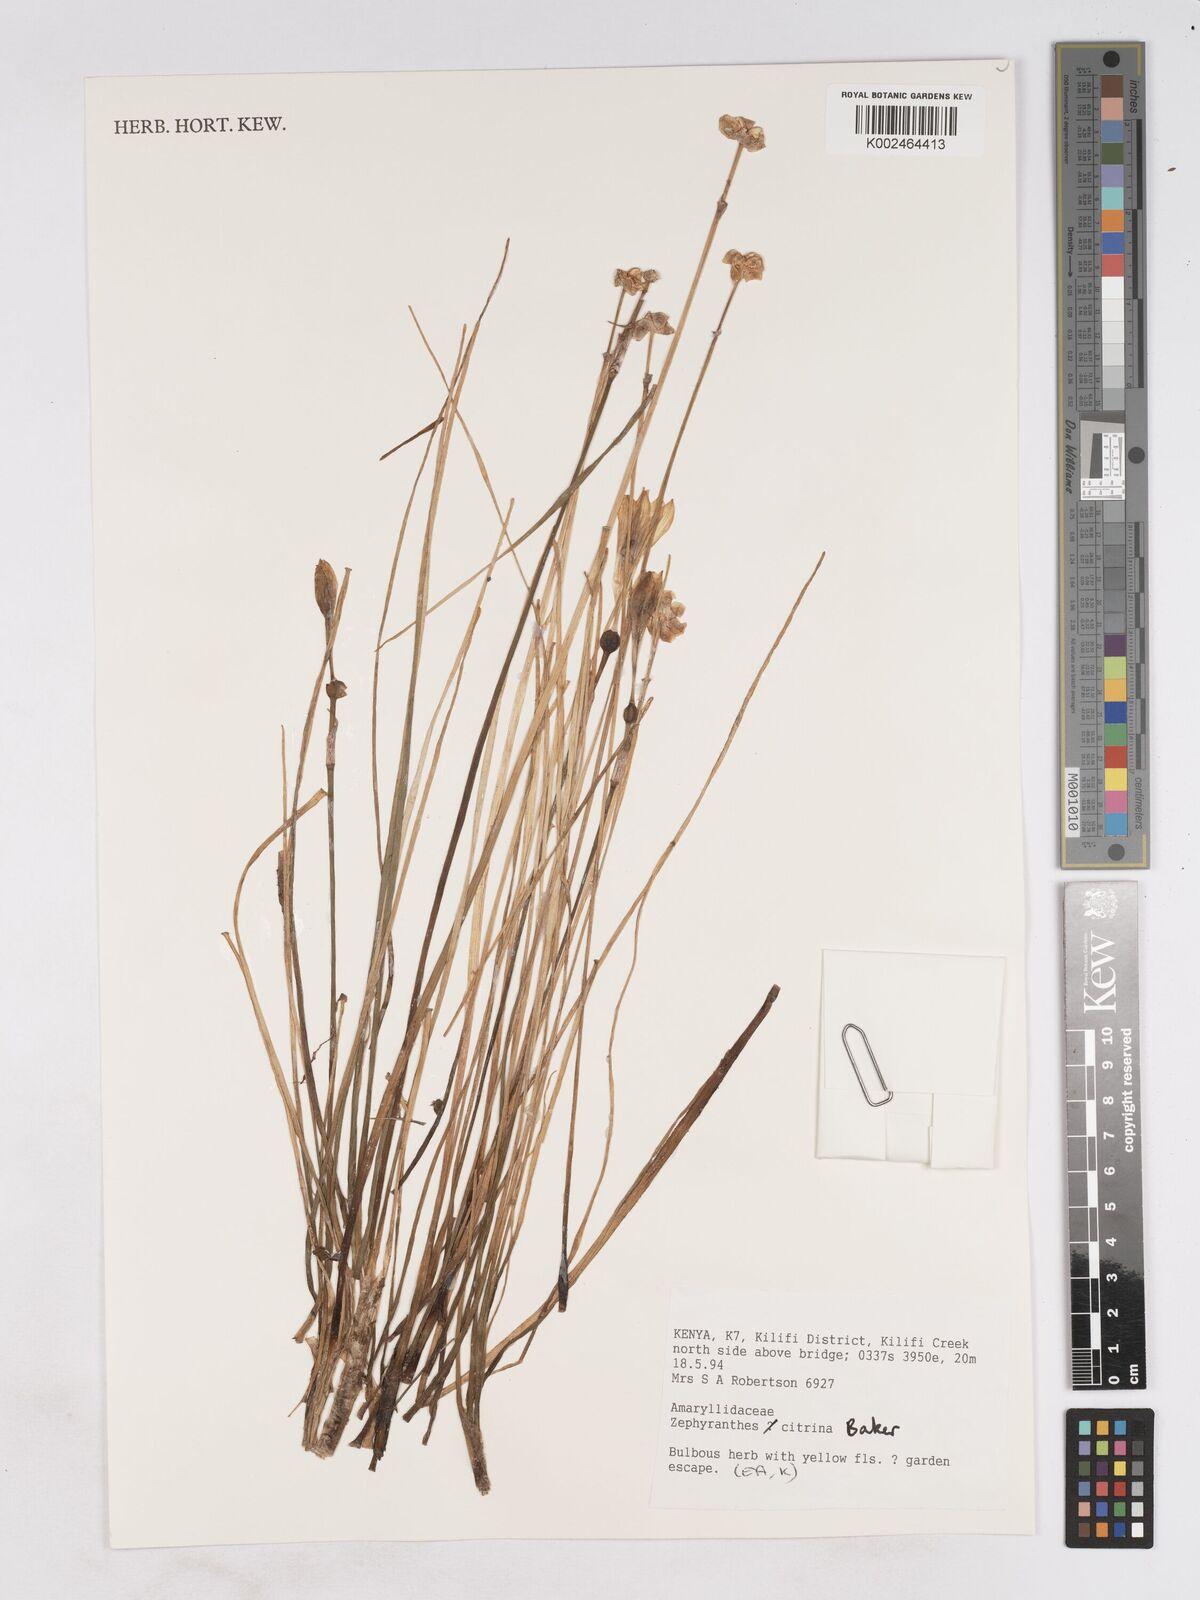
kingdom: Plantae
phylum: Tracheophyta
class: Liliopsida
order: Asparagales
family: Amaryllidaceae
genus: Zephyranthes
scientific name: Zephyranthes citrina
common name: Citron zephyrlily
